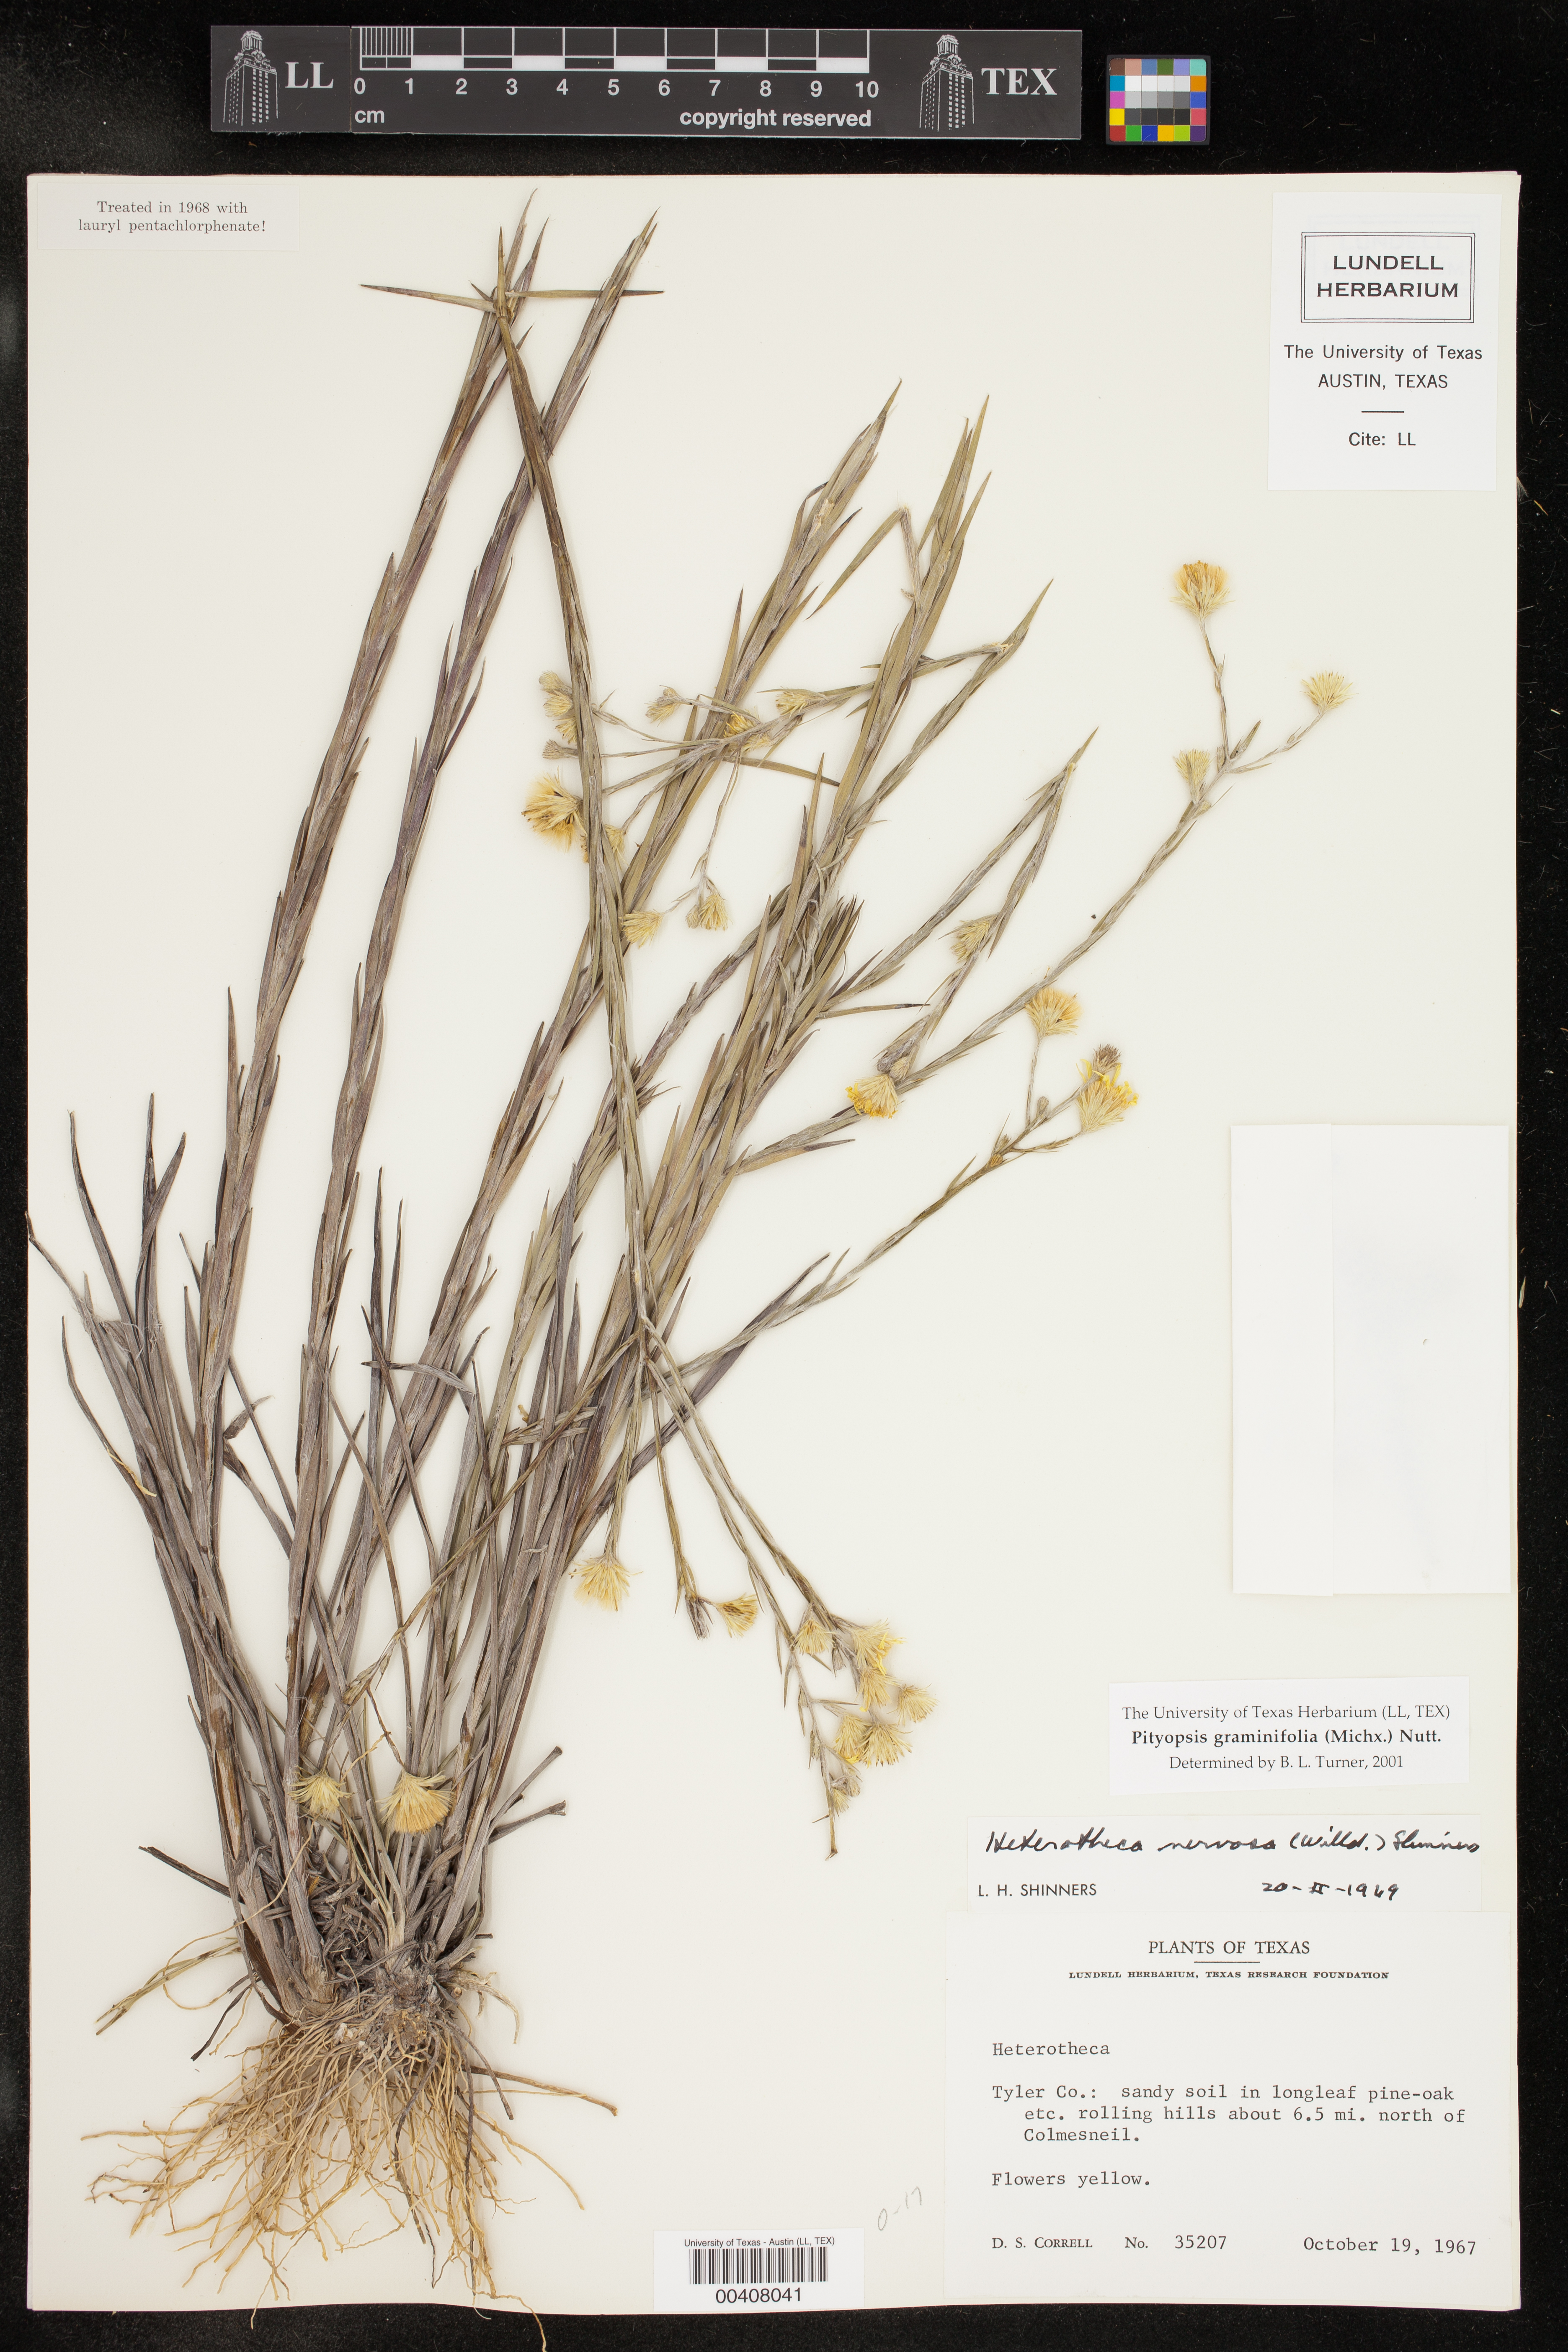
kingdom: Plantae
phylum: Tracheophyta
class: Magnoliopsida
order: Asterales
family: Asteraceae
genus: Pityopsis
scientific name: Pityopsis graminifolia
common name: Grass-leaf golden-aster
